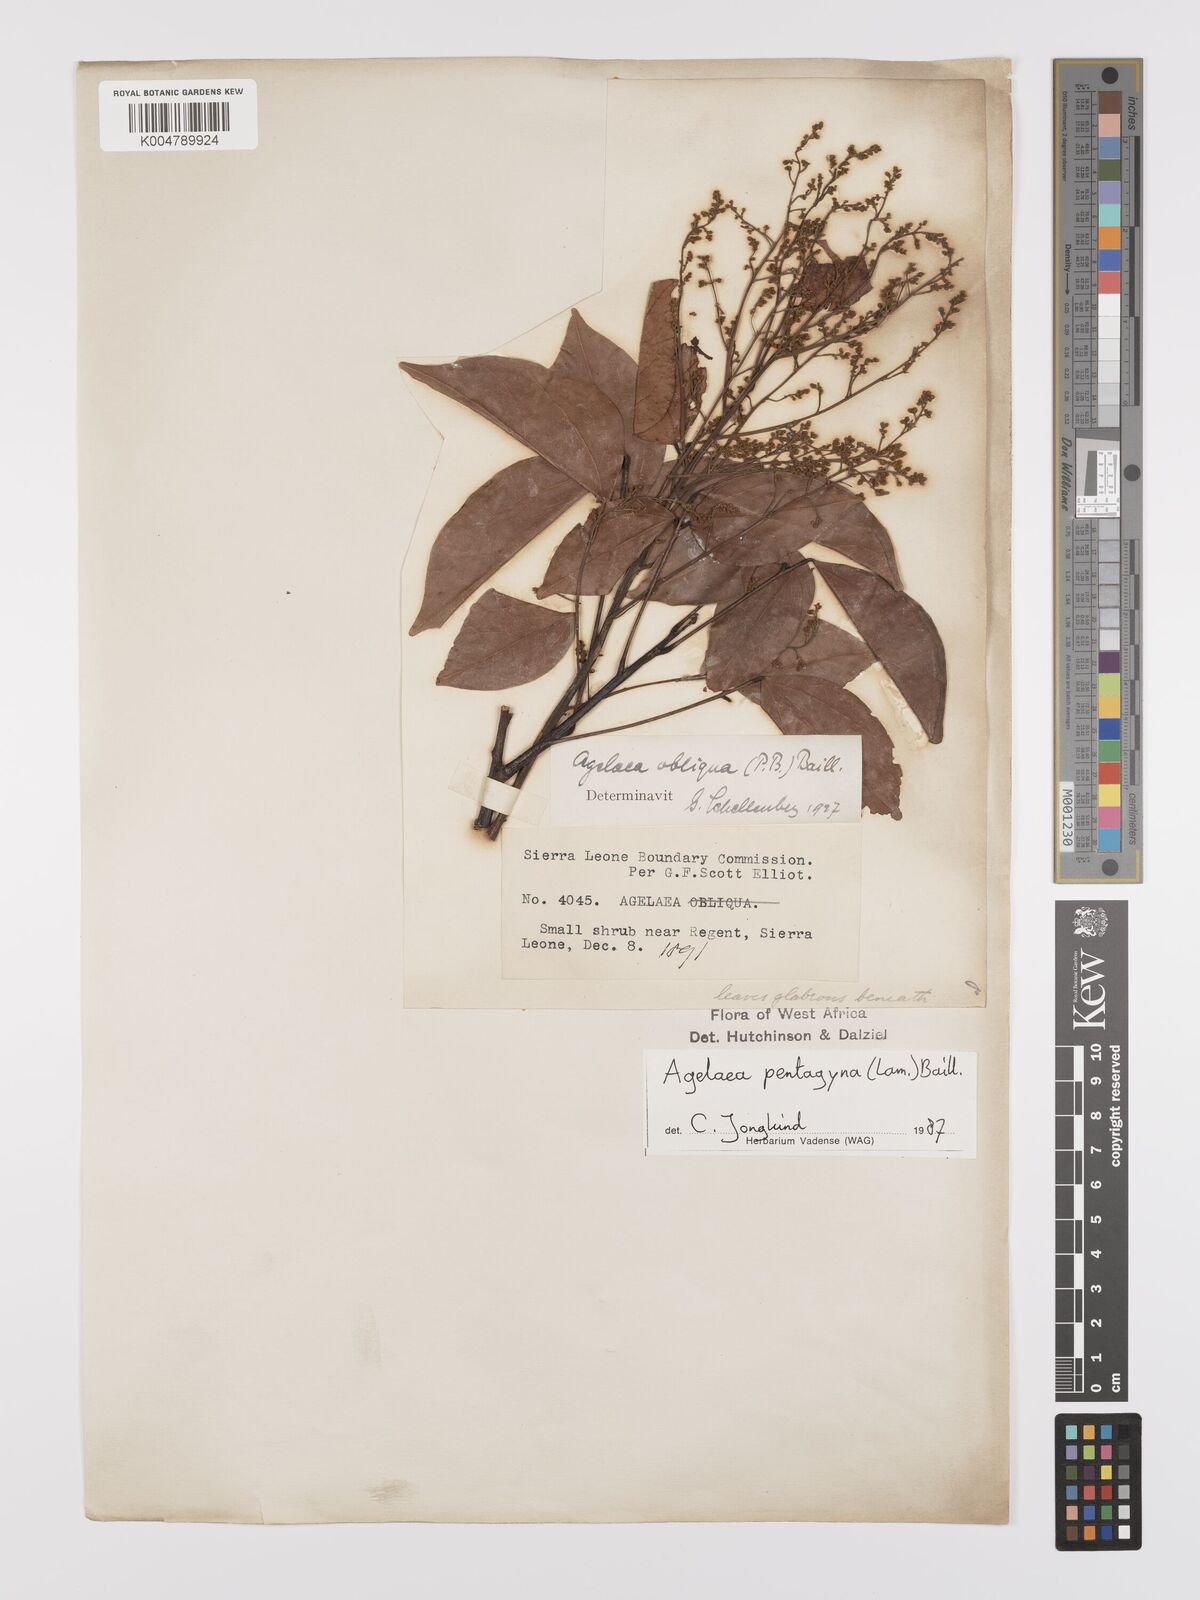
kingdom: Plantae
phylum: Tracheophyta
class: Magnoliopsida
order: Oxalidales
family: Connaraceae
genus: Agelaea
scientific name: Agelaea pentagyna
